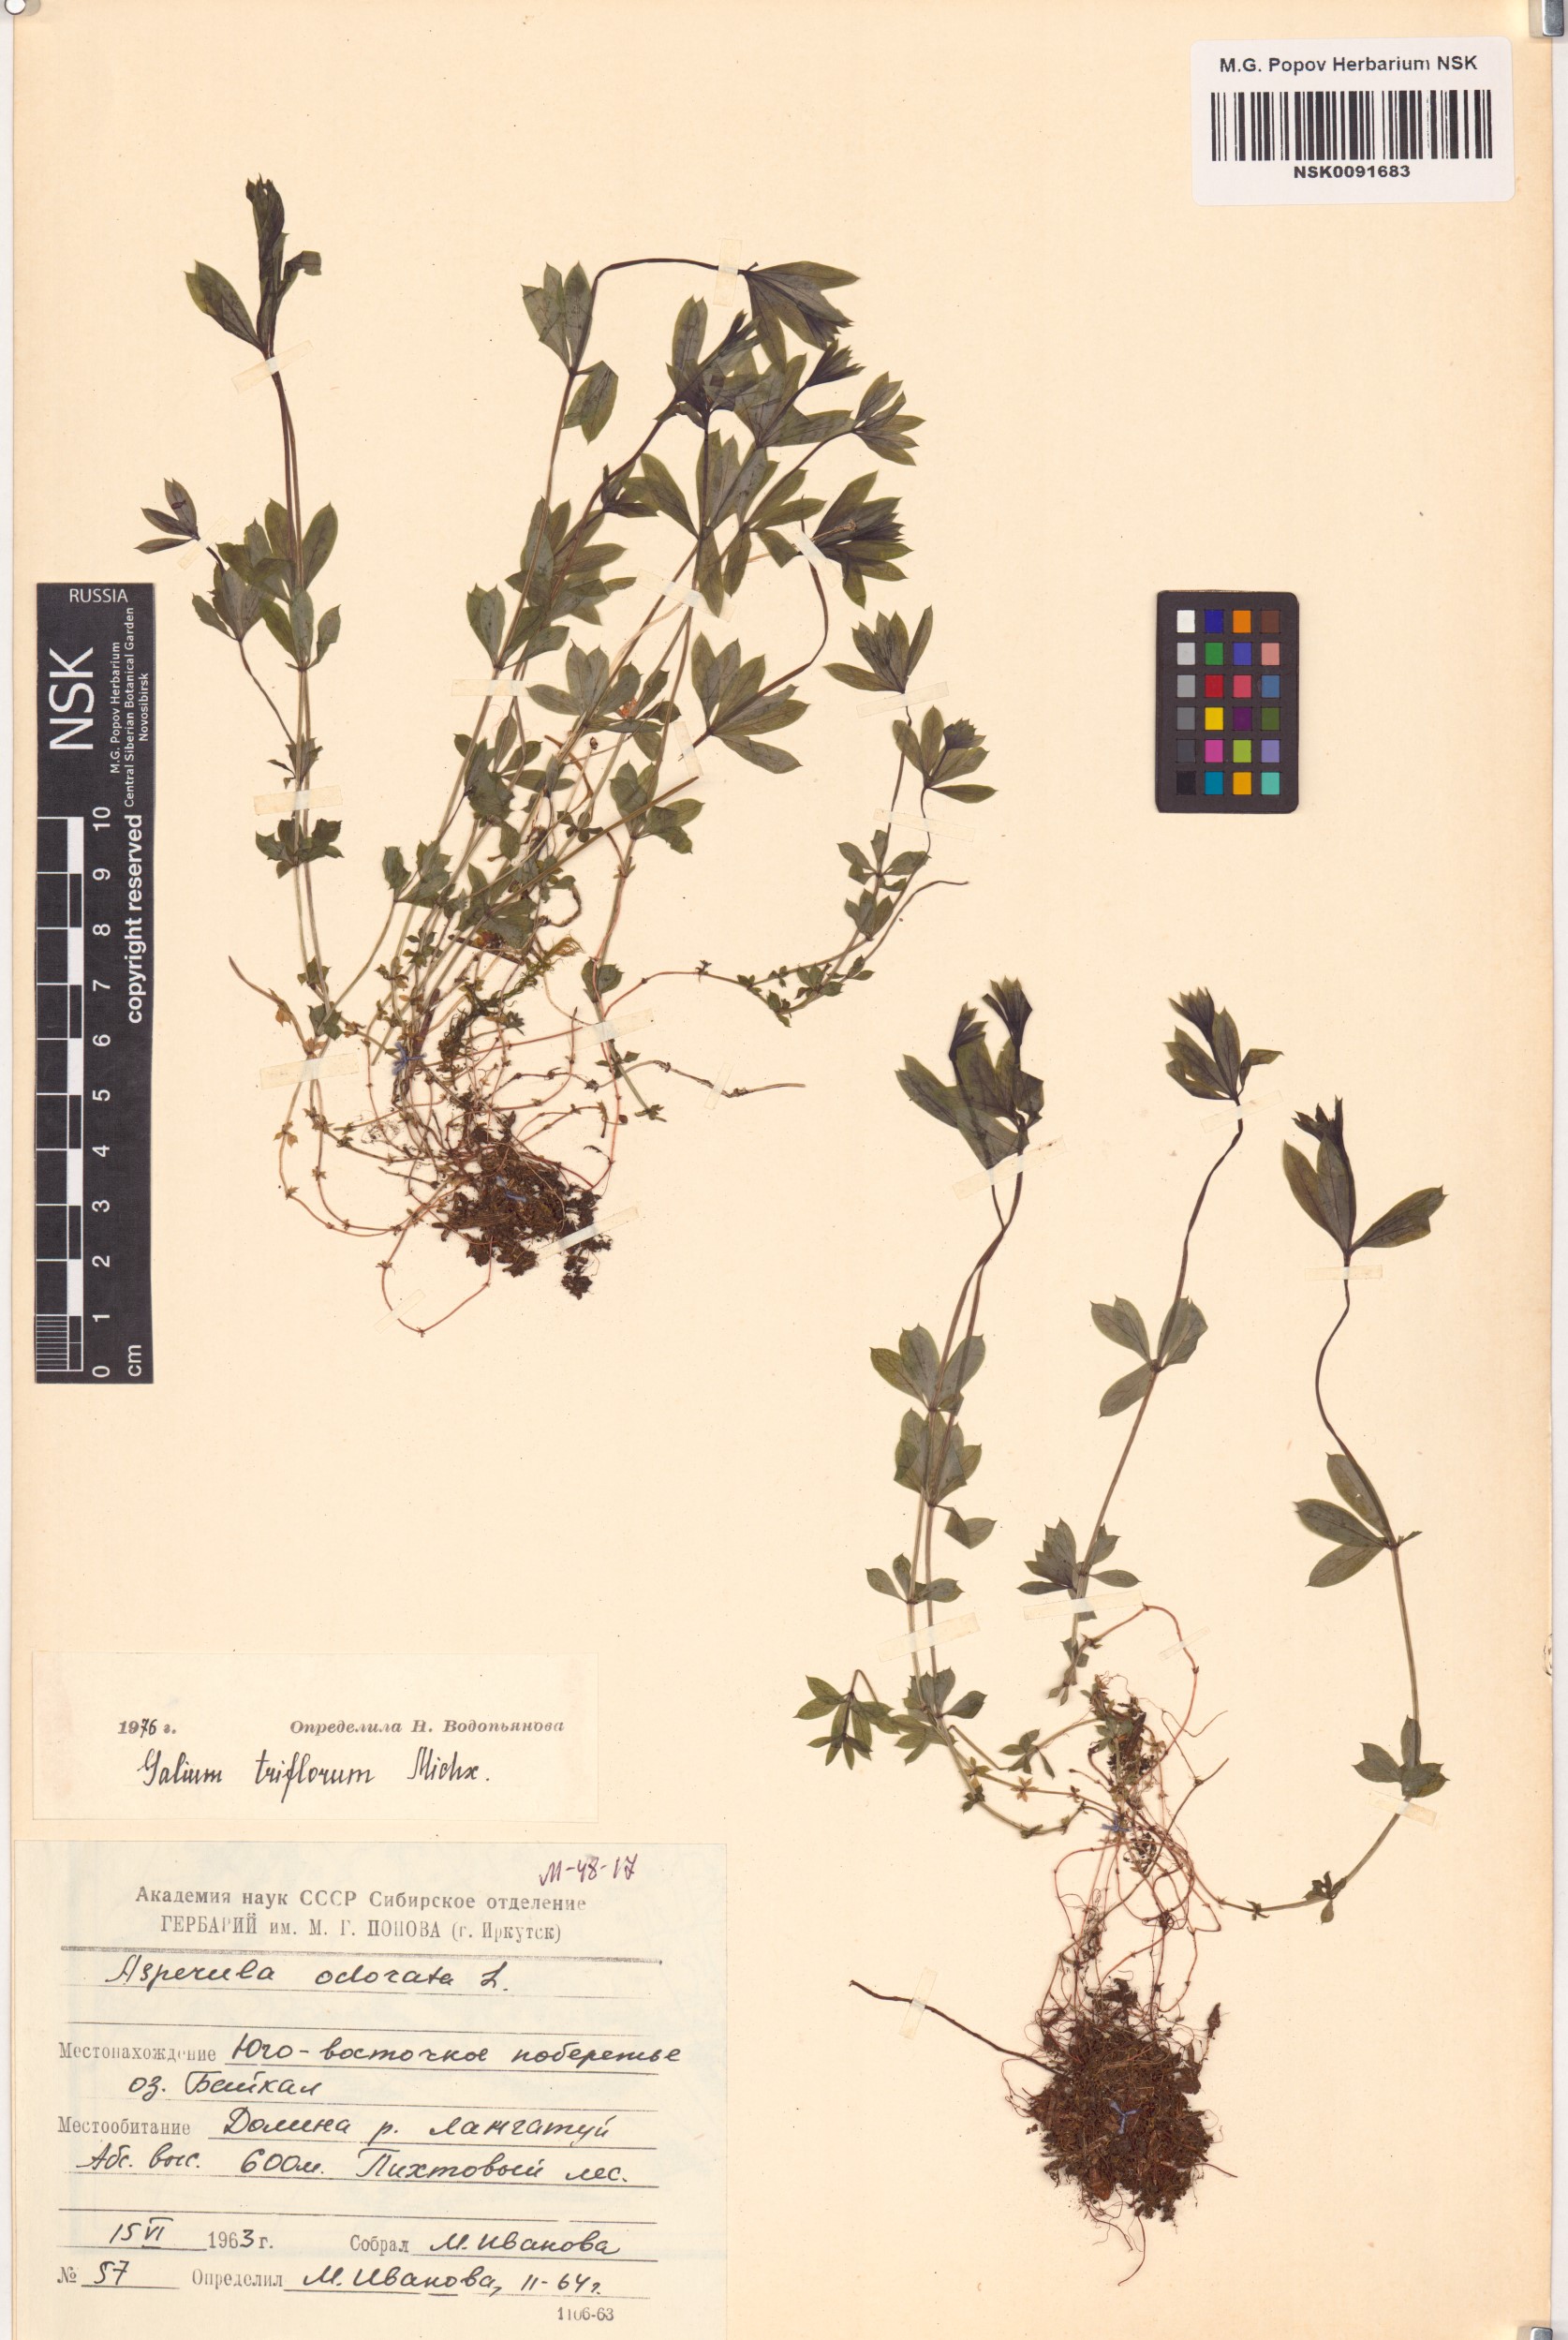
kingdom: Plantae
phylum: Tracheophyta
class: Magnoliopsida
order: Gentianales
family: Rubiaceae
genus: Galium
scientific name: Galium triflorum
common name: Fragrant bedstraw
